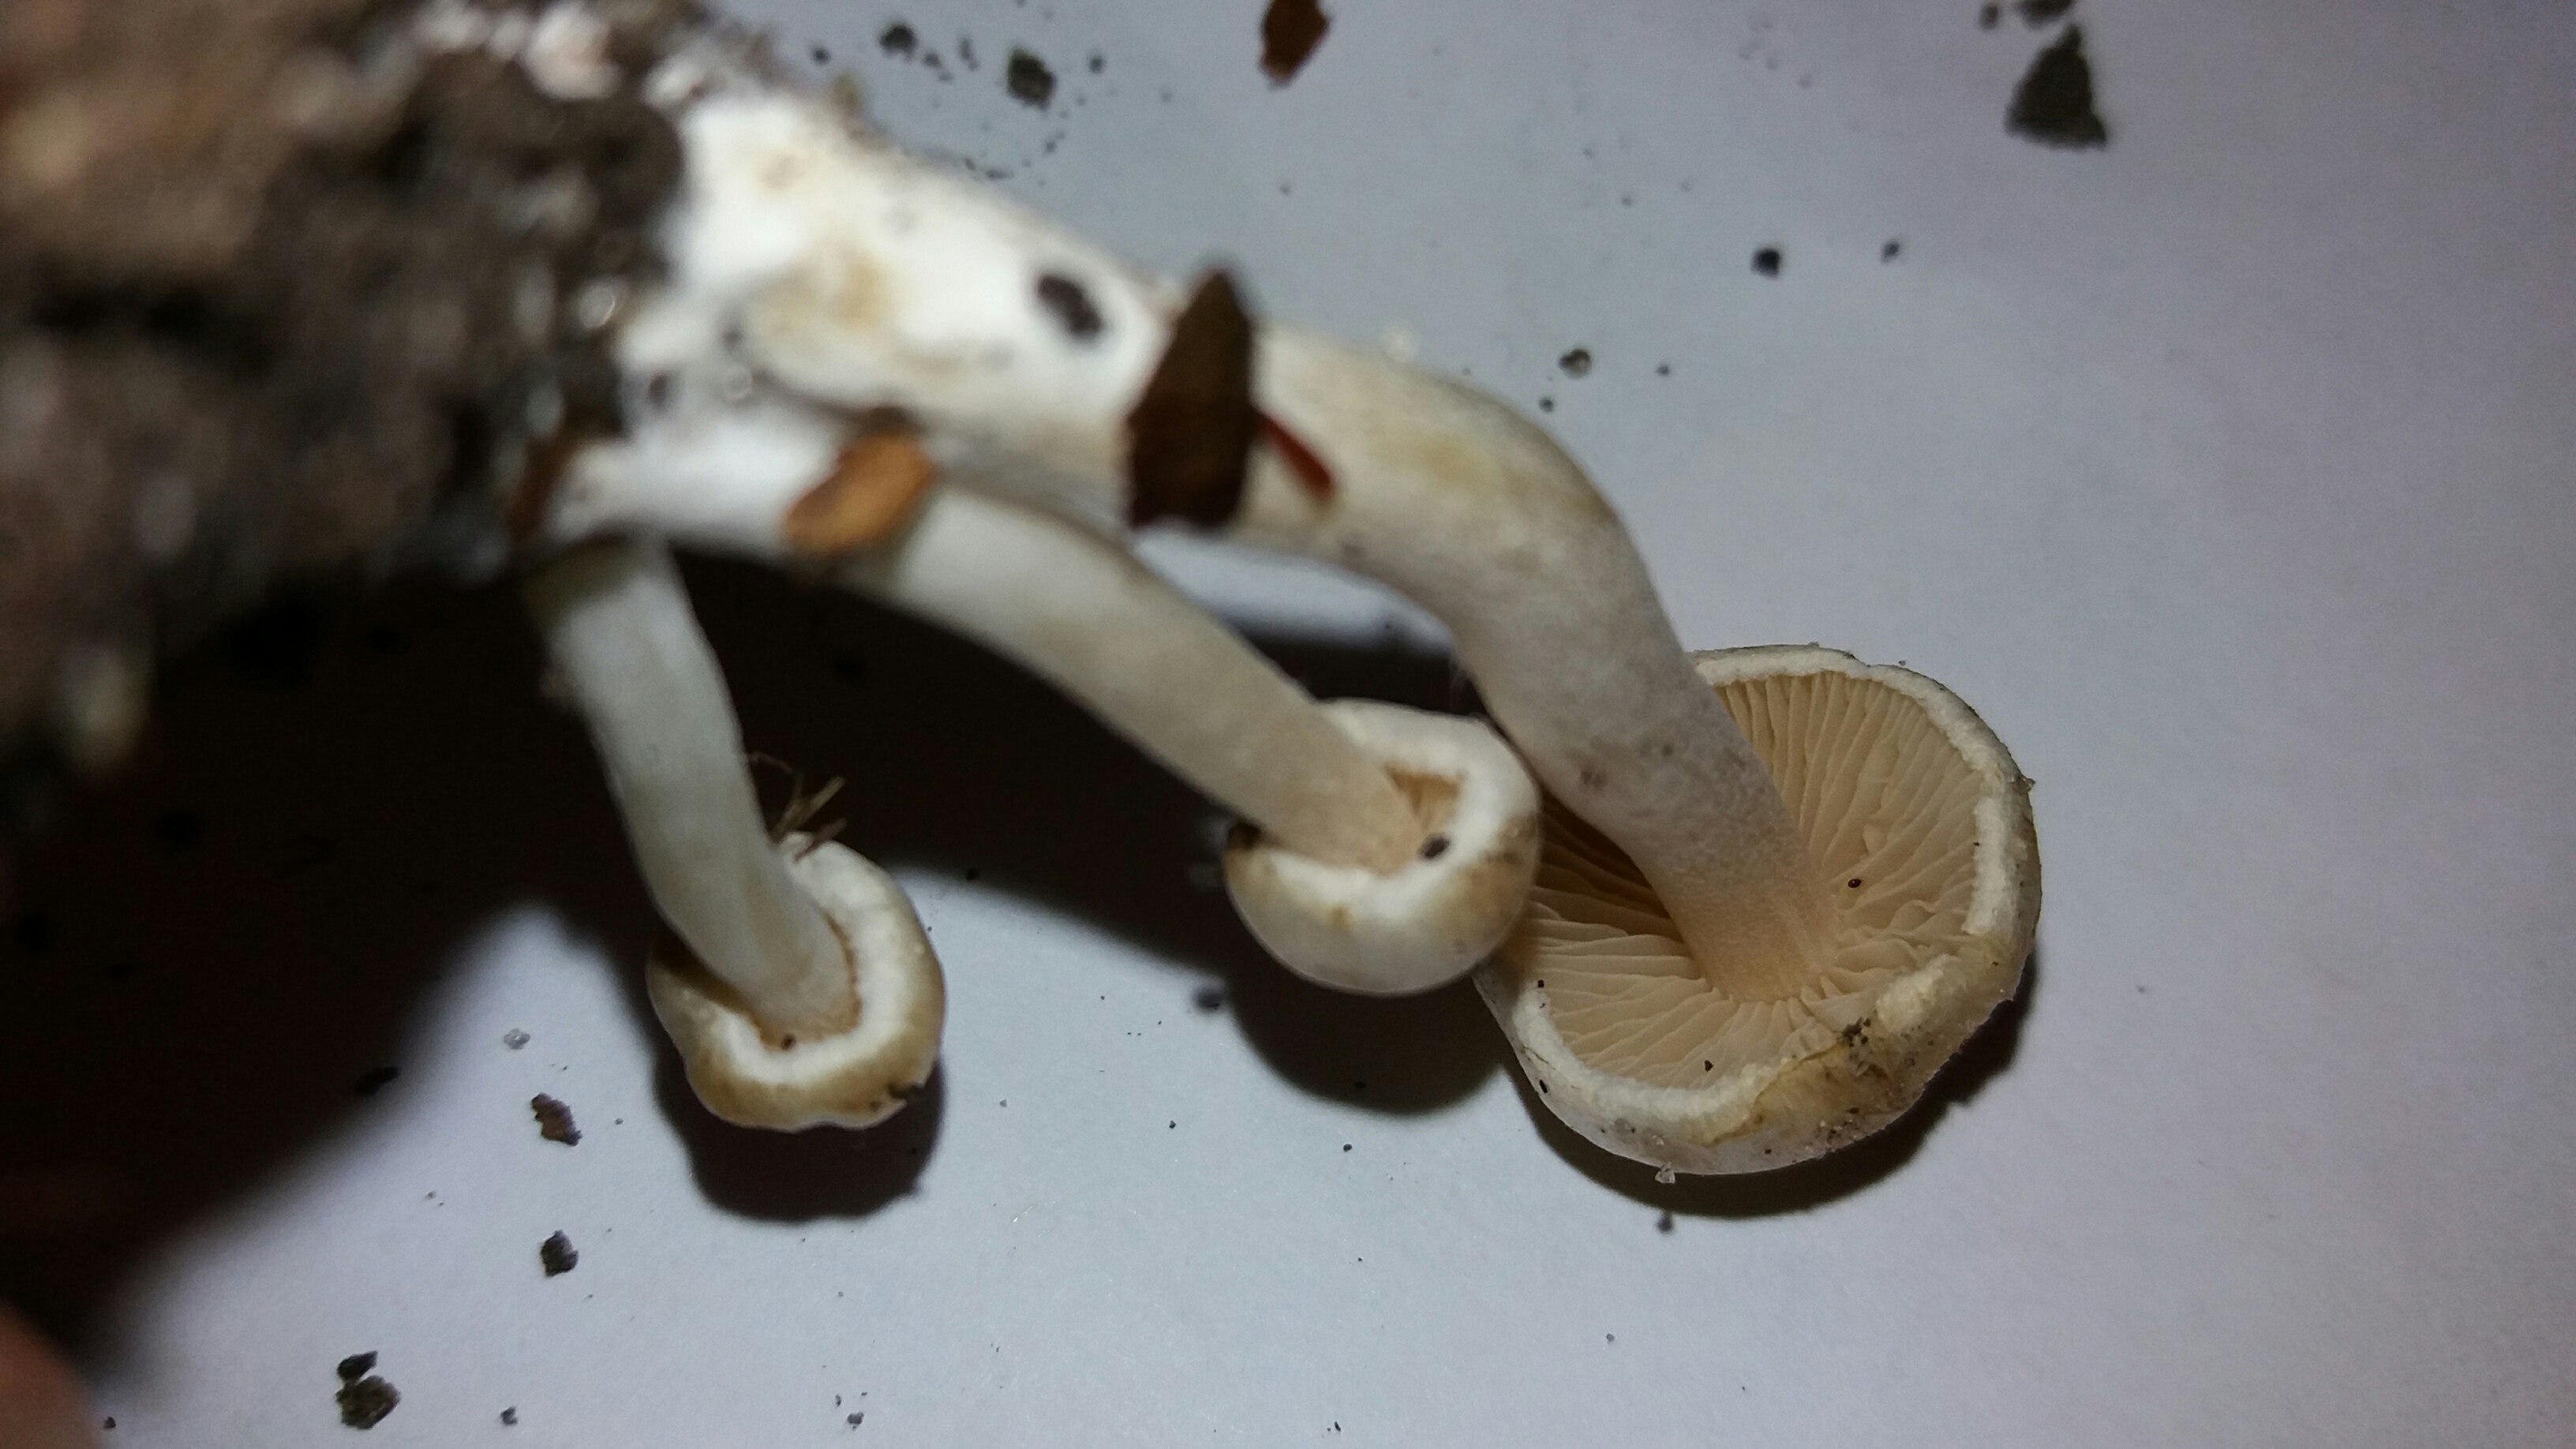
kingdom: Fungi
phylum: Basidiomycota
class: Agaricomycetes
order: Agaricales
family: Inocybaceae
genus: Inocybe
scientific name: Inocybe
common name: trævlhat
